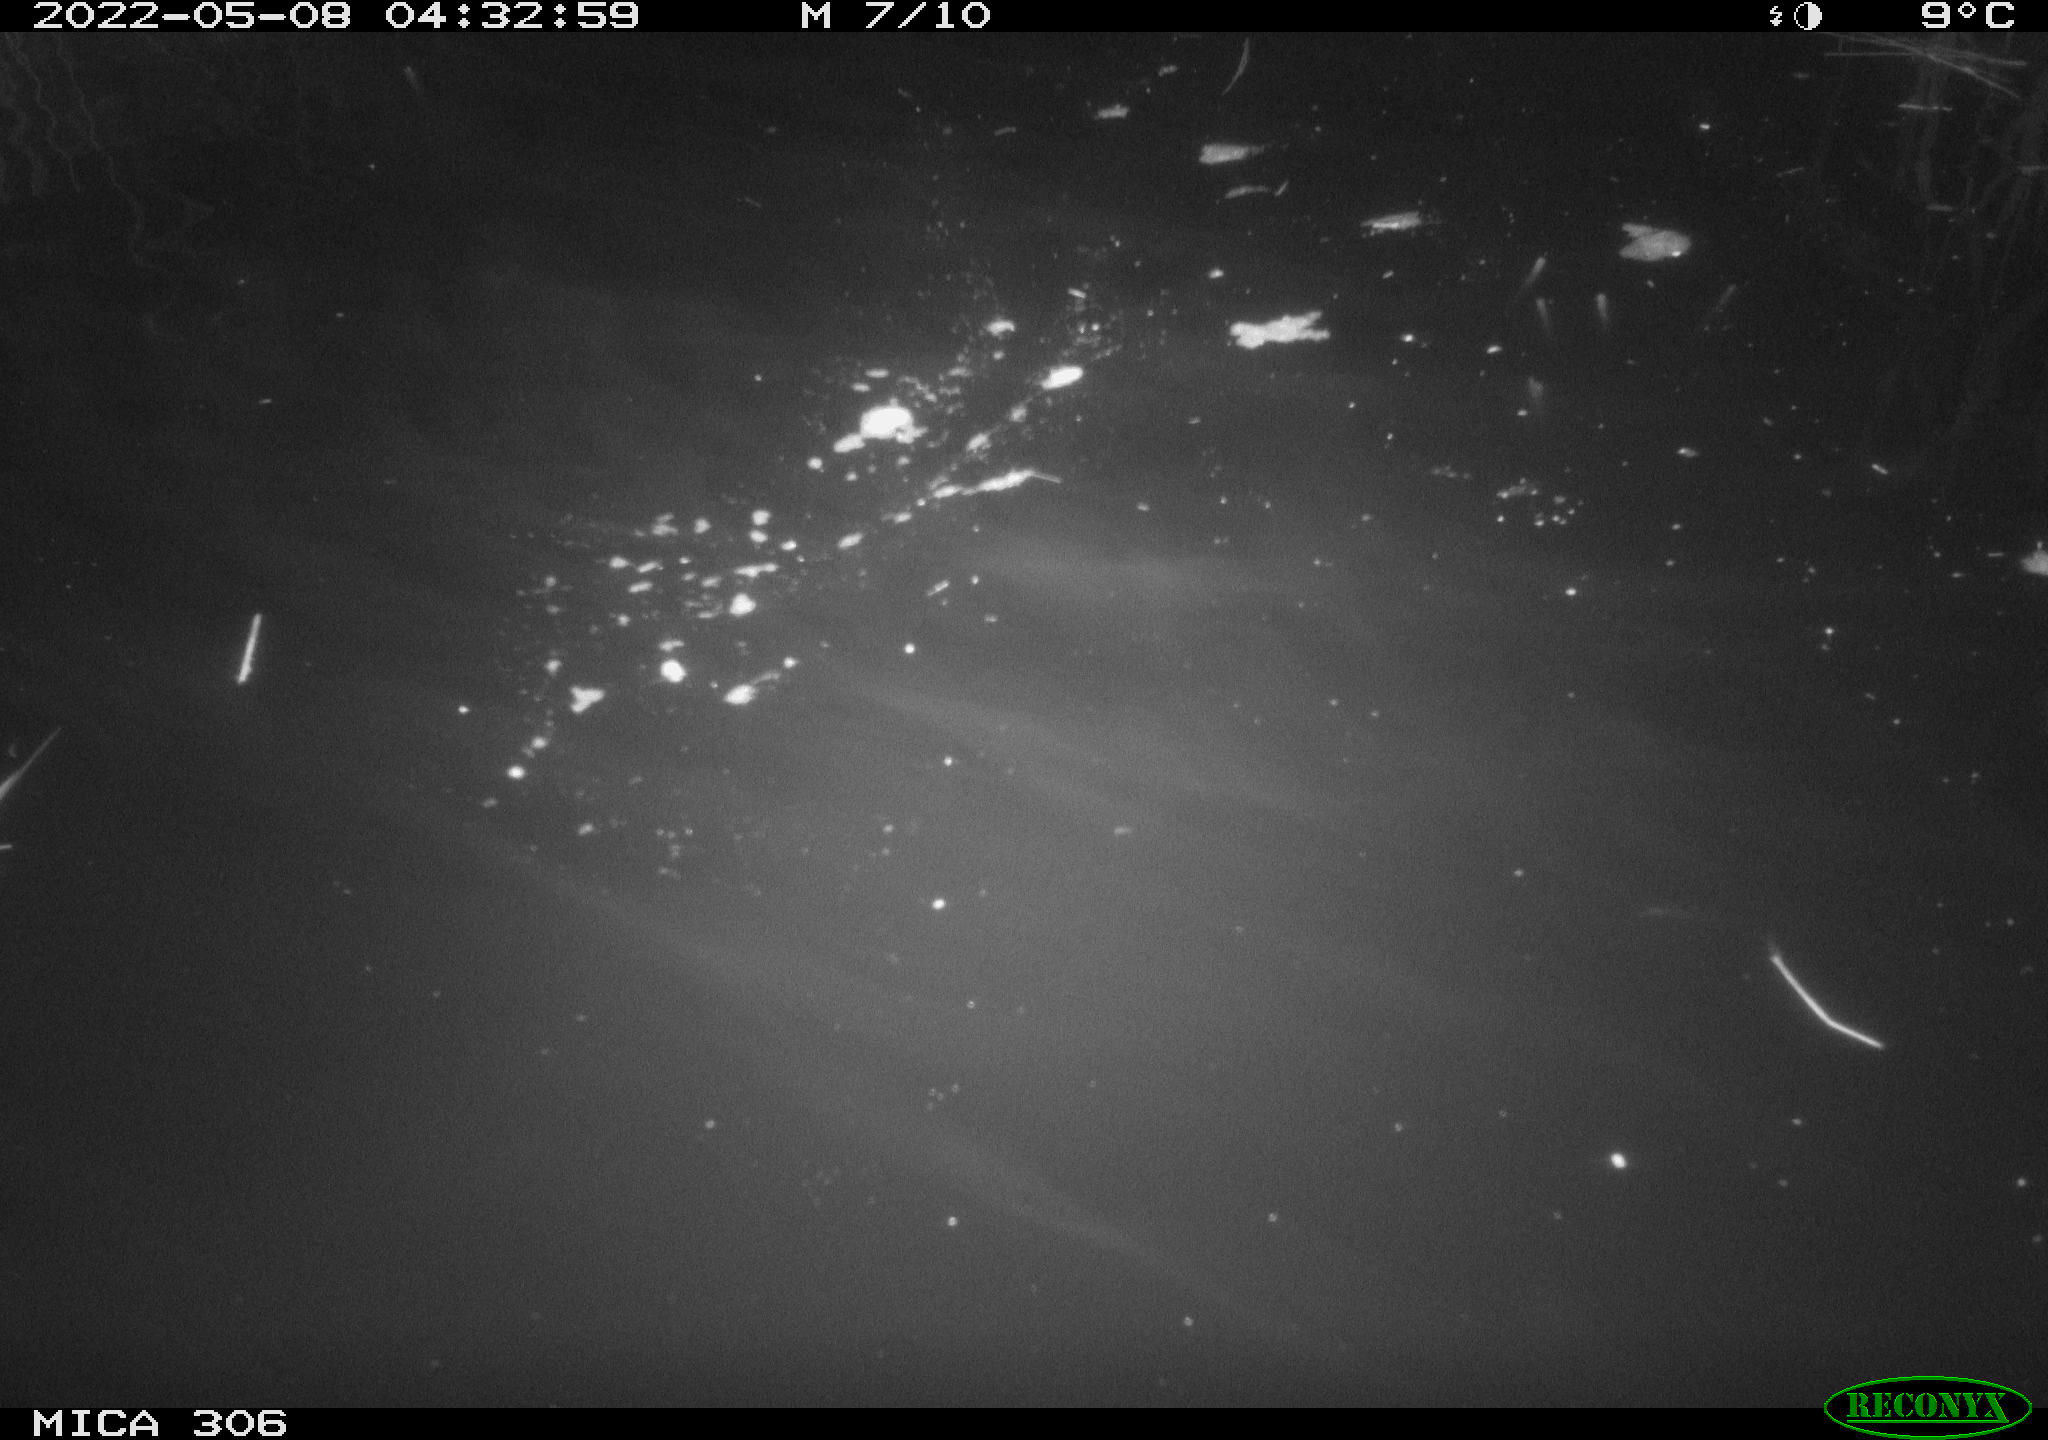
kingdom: Animalia
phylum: Chordata
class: Mammalia
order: Rodentia
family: Muridae
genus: Rattus
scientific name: Rattus norvegicus
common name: Brown rat
